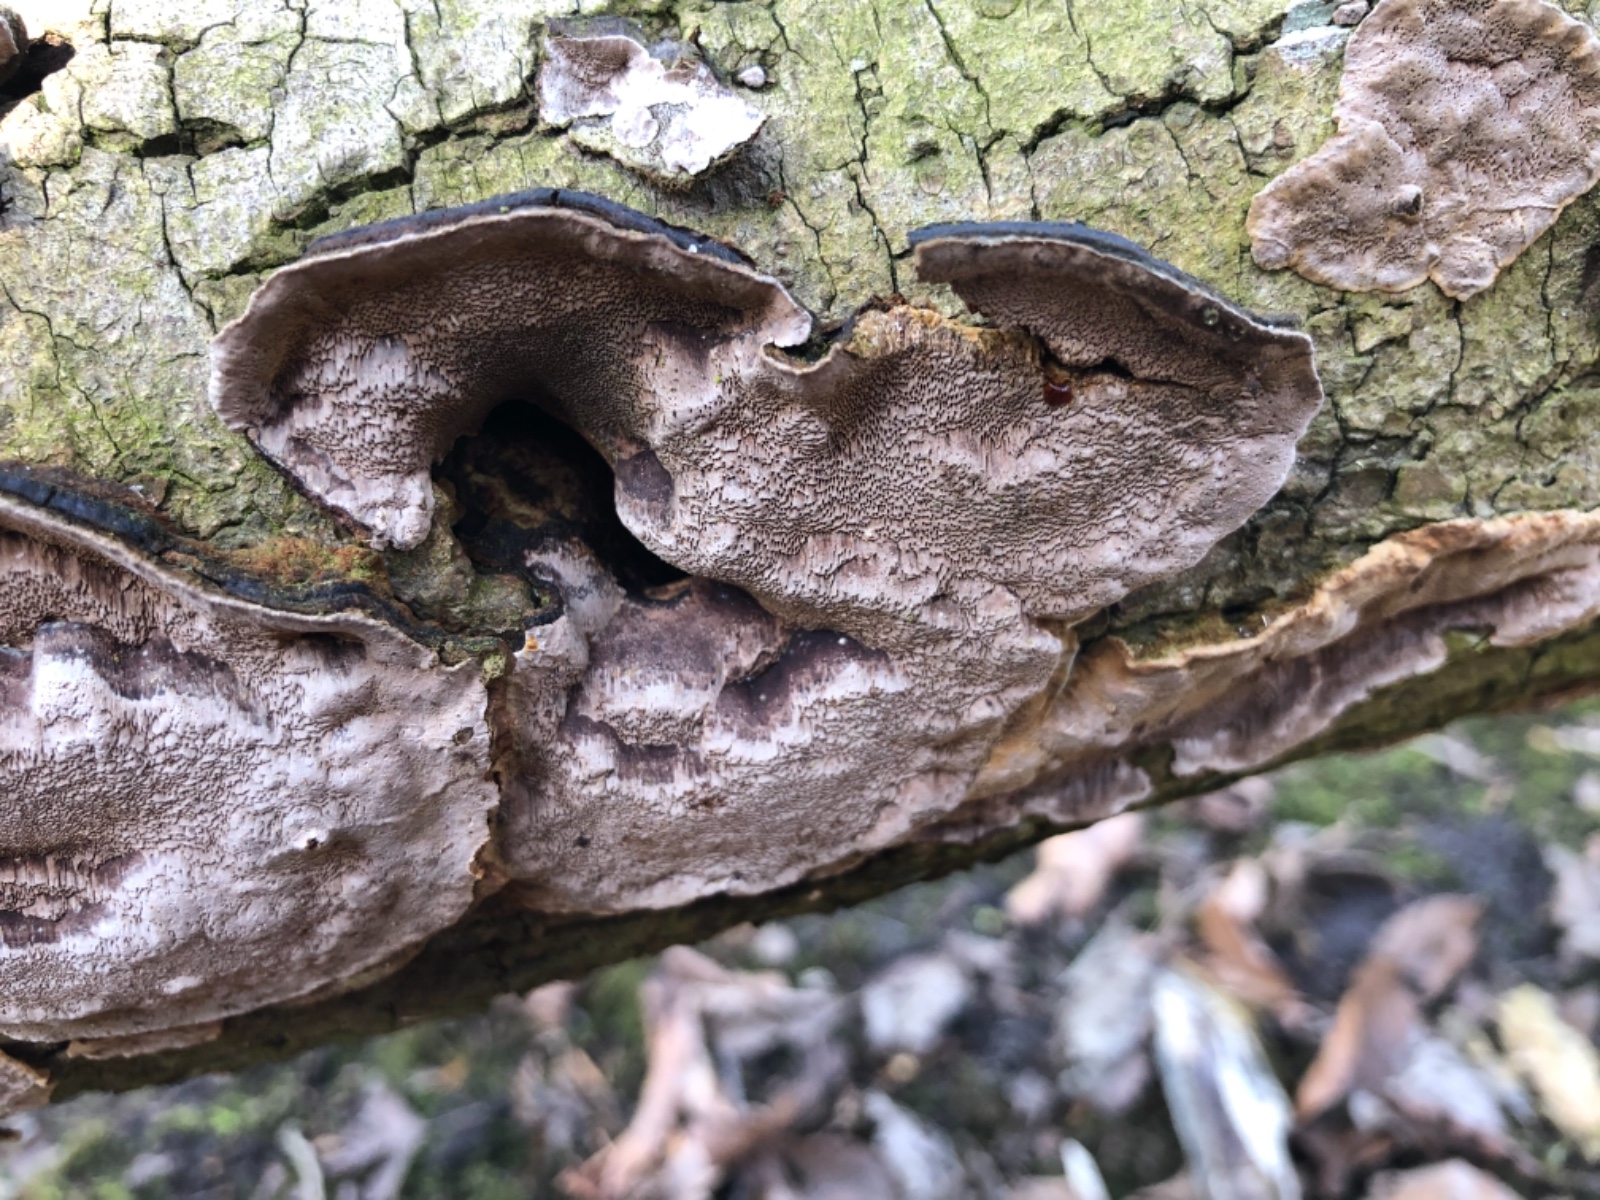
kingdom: Fungi
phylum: Basidiomycota
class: Agaricomycetes
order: Polyporales
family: Polyporaceae
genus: Podofomes
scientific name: Podofomes mollis
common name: blød begporesvamp
